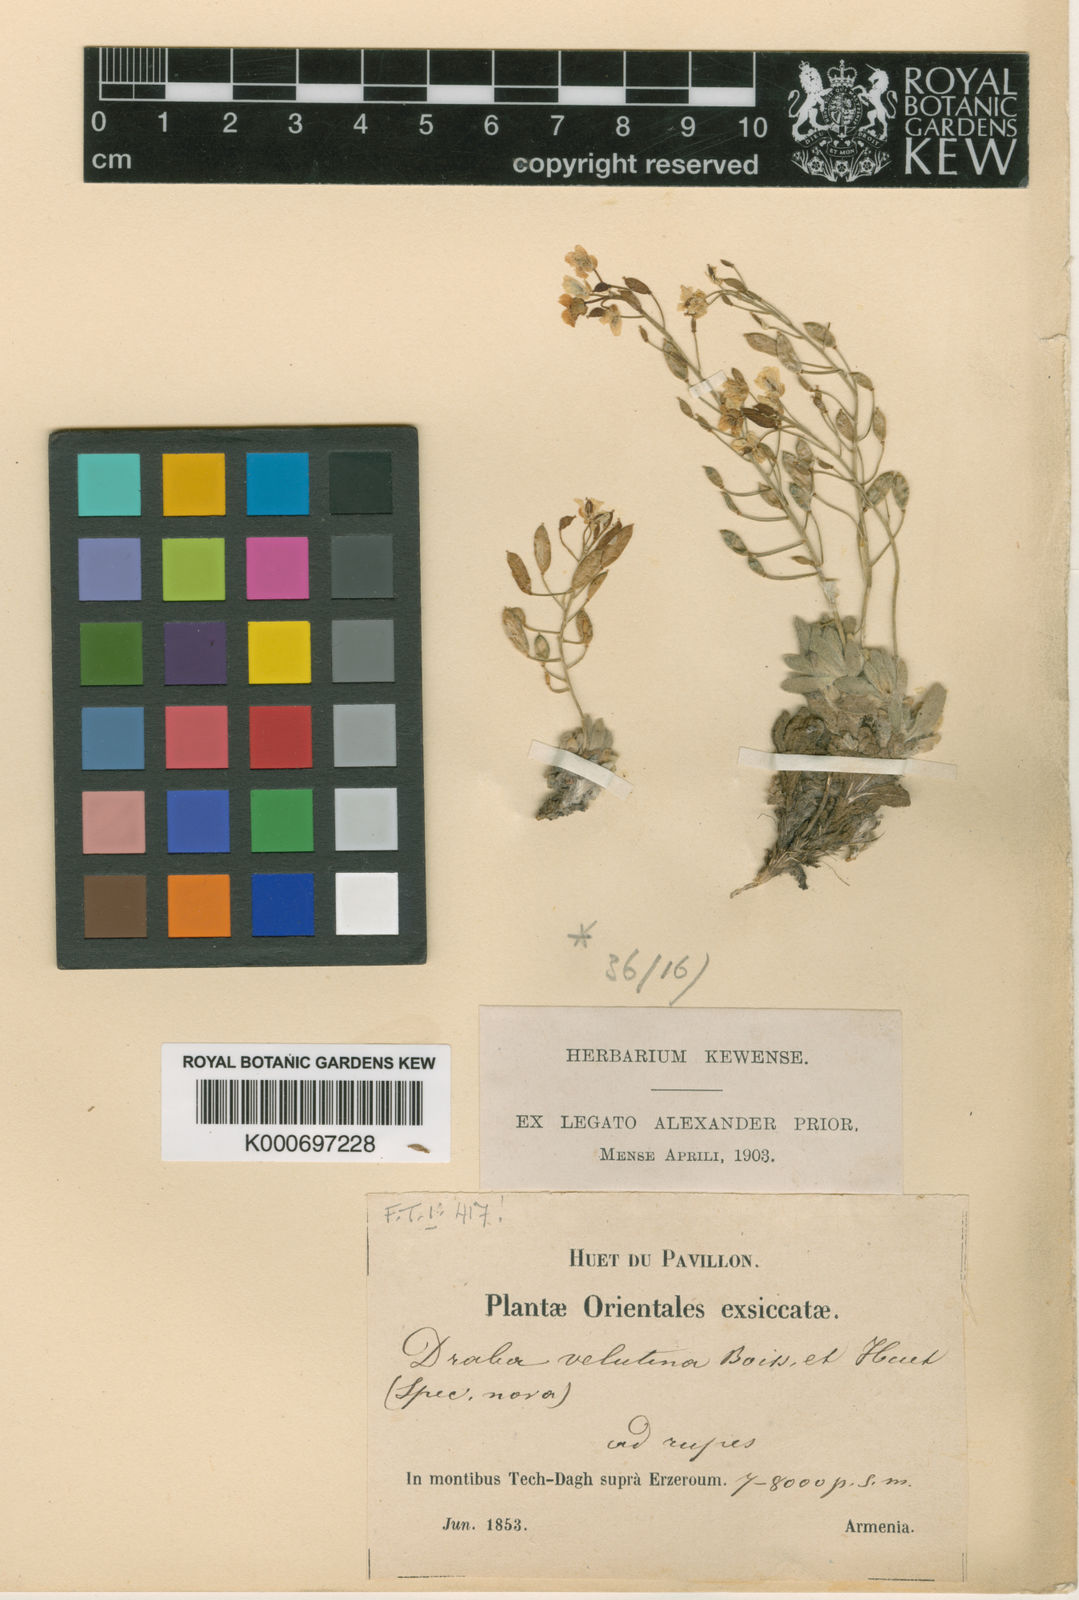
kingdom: Plantae
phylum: Tracheophyta
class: Magnoliopsida
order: Brassicales
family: Brassicaceae
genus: Draba
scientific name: Draba magellanica
